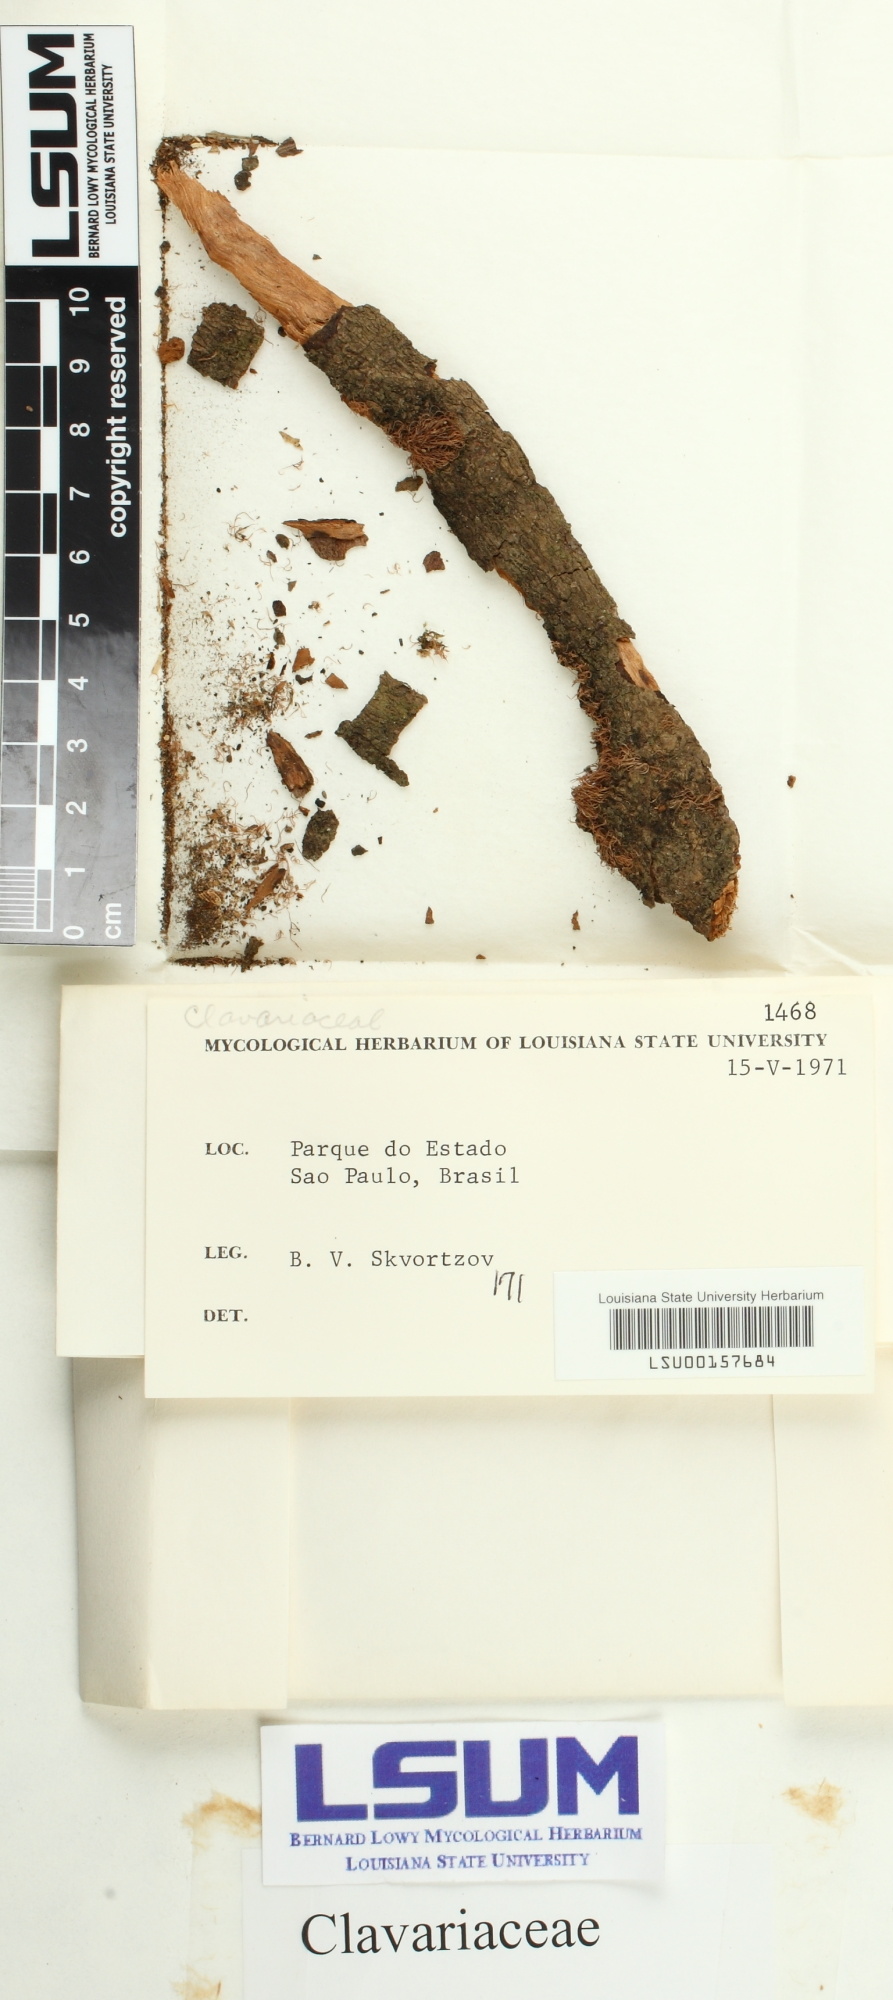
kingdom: Fungi
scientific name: Fungi
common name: Fungi
